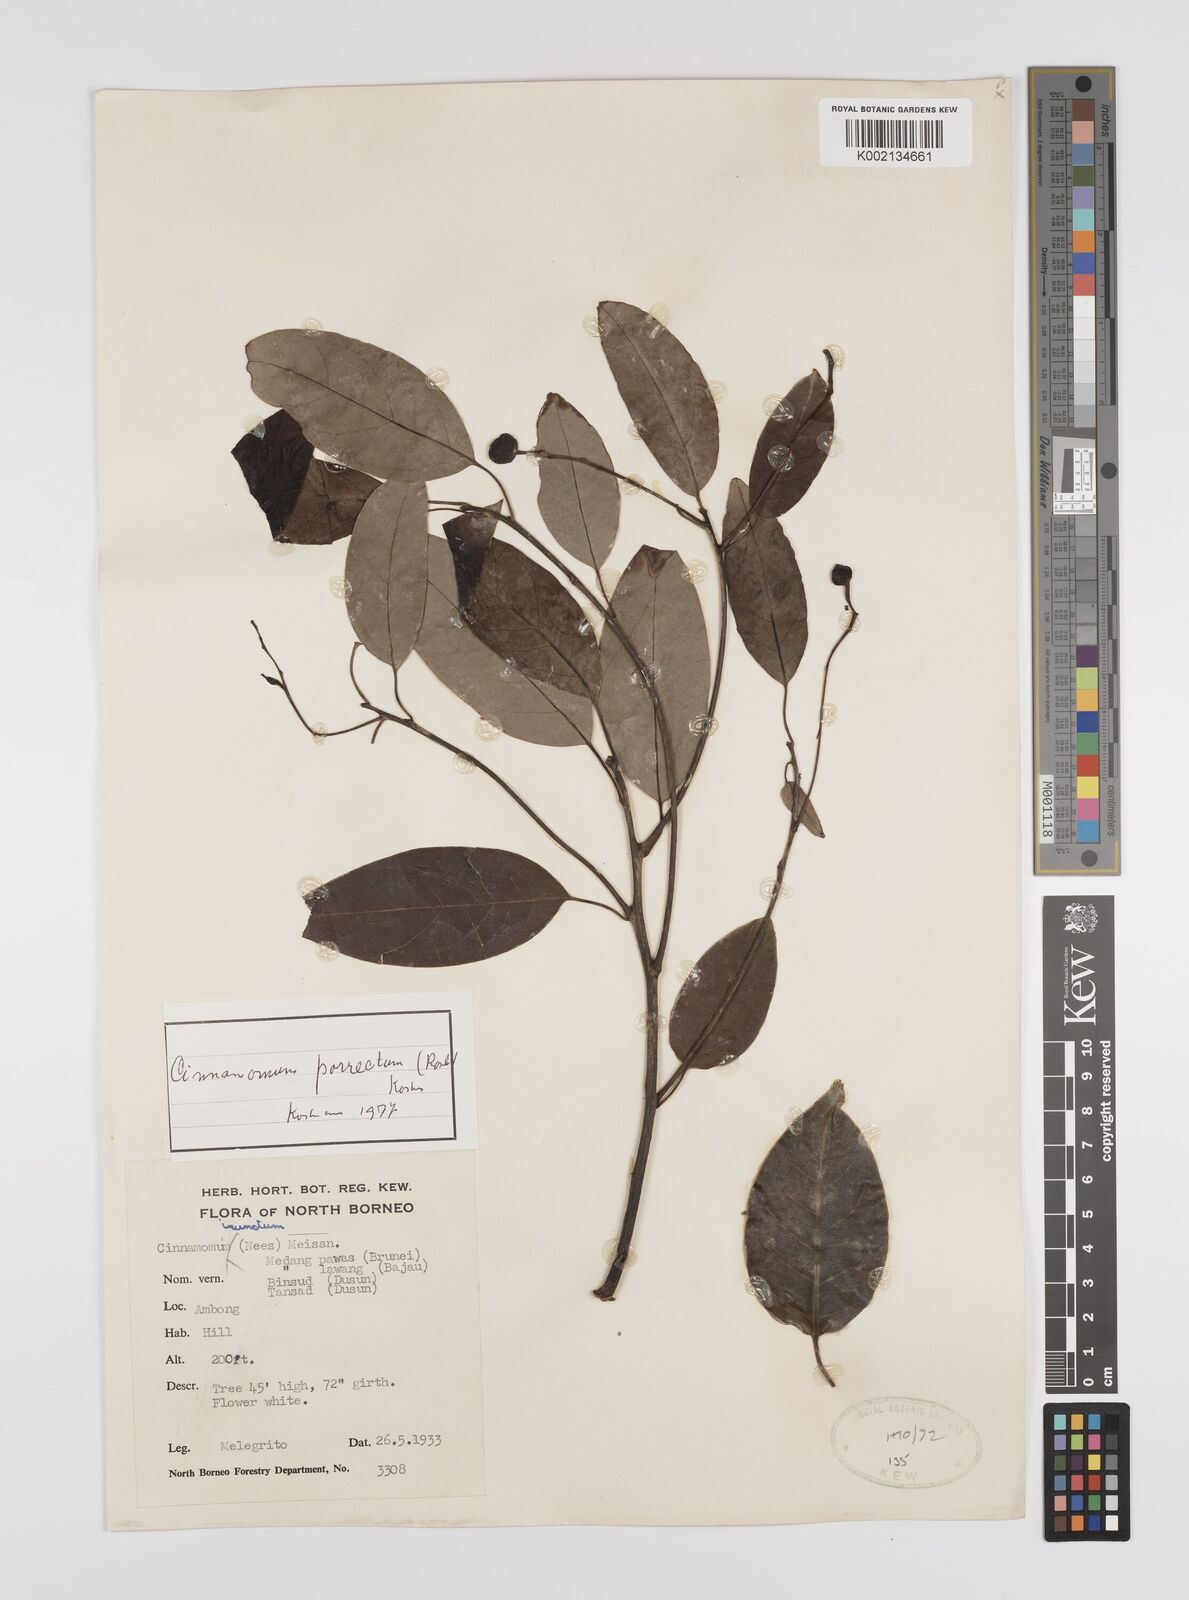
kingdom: Plantae
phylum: Tracheophyta
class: Magnoliopsida
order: Laurales
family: Lauraceae
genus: Cinnamomum
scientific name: Cinnamomum parthenoxylon
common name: Martaban camphor wood
